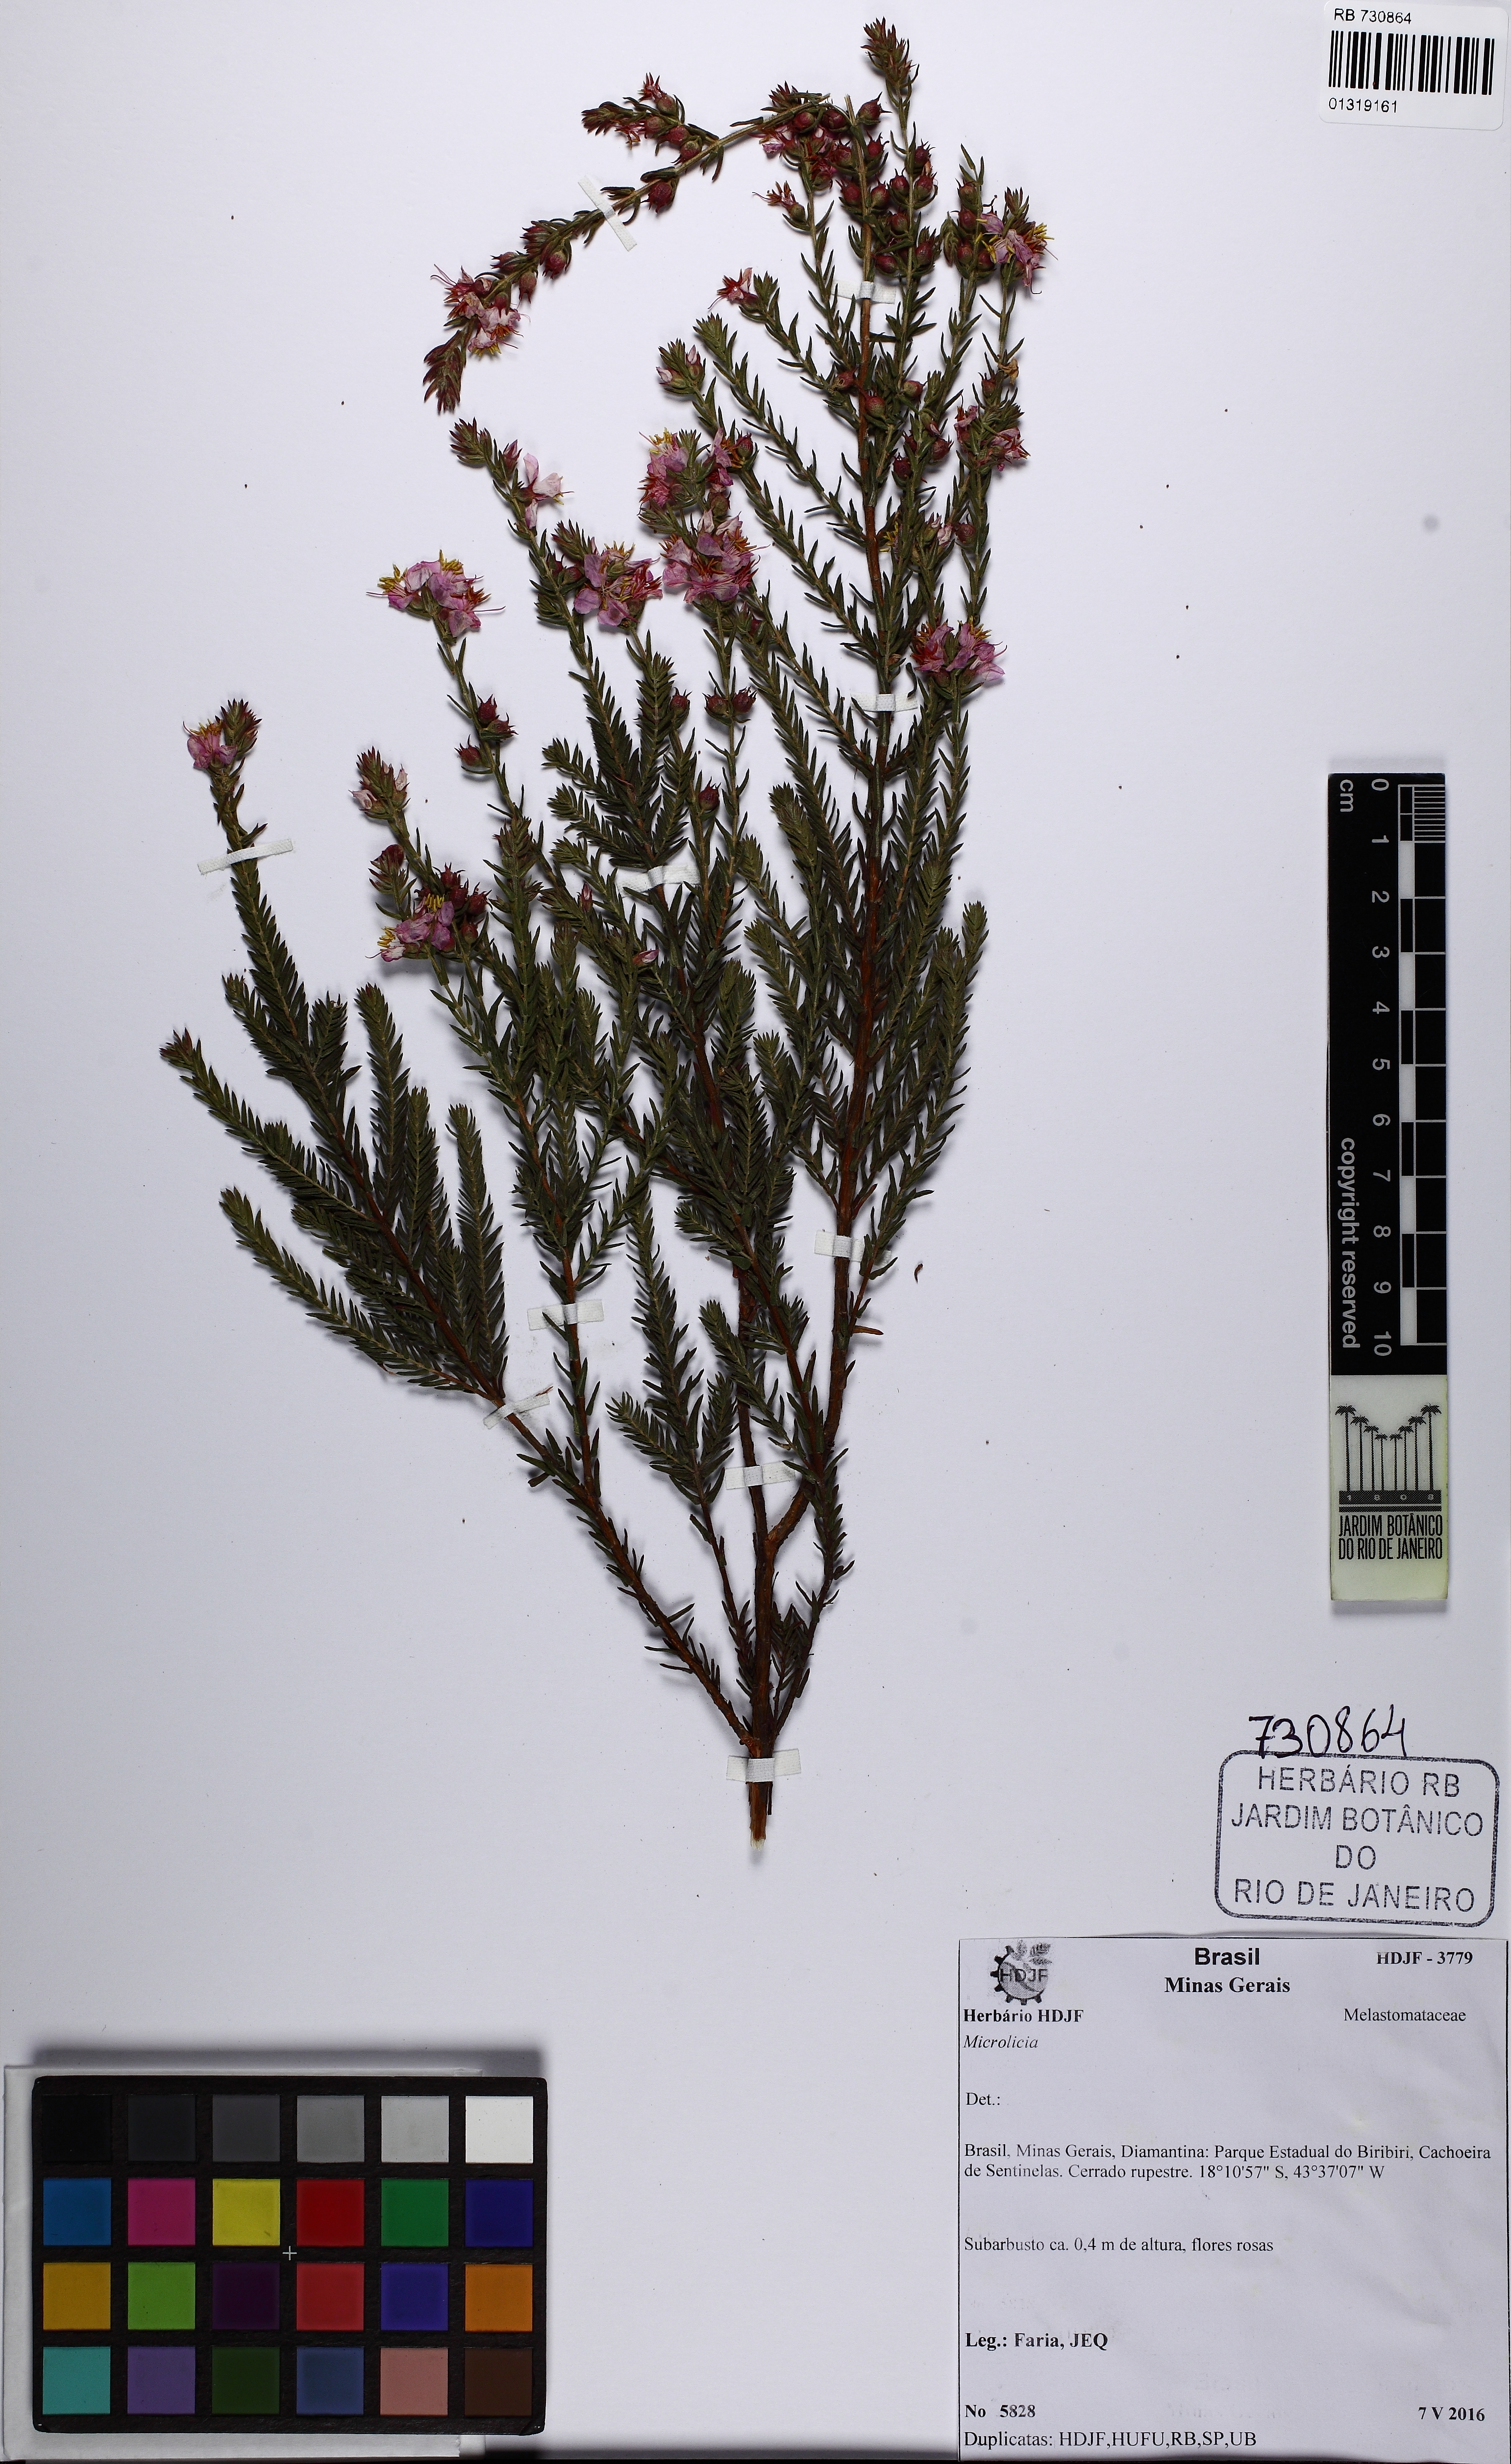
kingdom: Plantae
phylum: Tracheophyta
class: Magnoliopsida
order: Myrtales
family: Melastomataceae
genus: Microlicia
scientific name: Microlicia taxifolia
